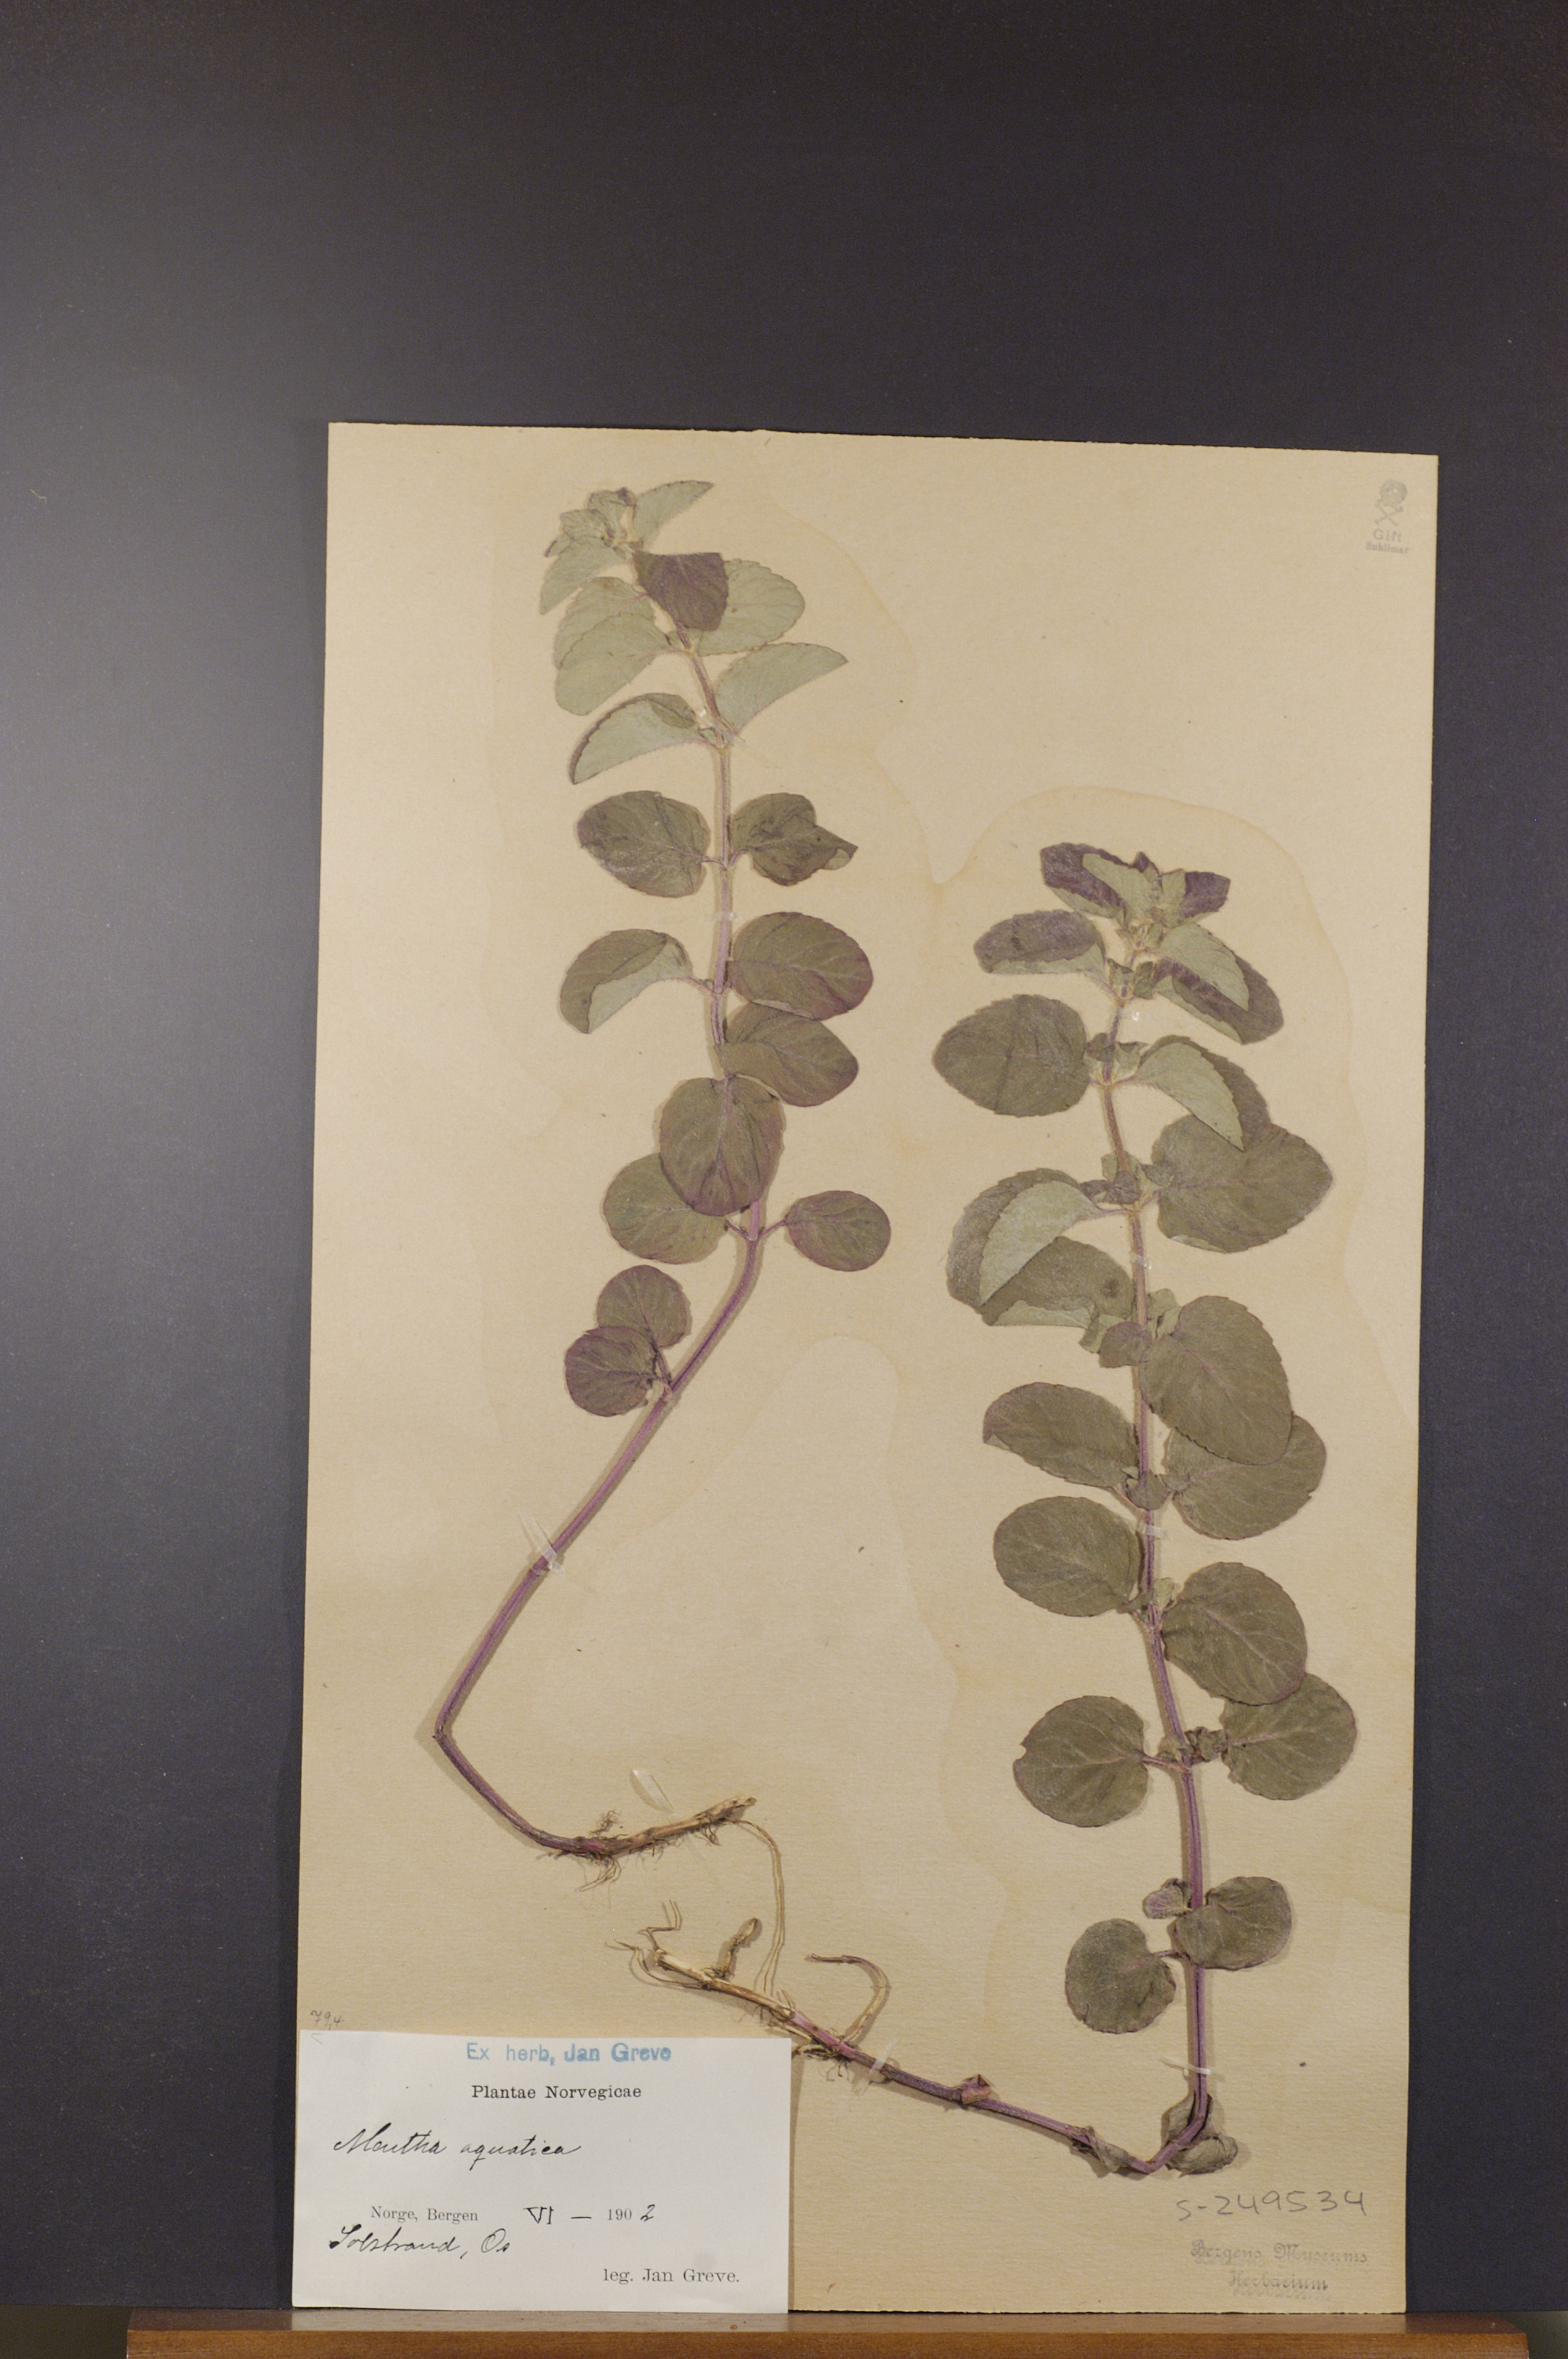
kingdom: Plantae
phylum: Tracheophyta
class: Magnoliopsida
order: Lamiales
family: Lamiaceae
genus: Mentha
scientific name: Mentha aquatica
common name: Water mint
